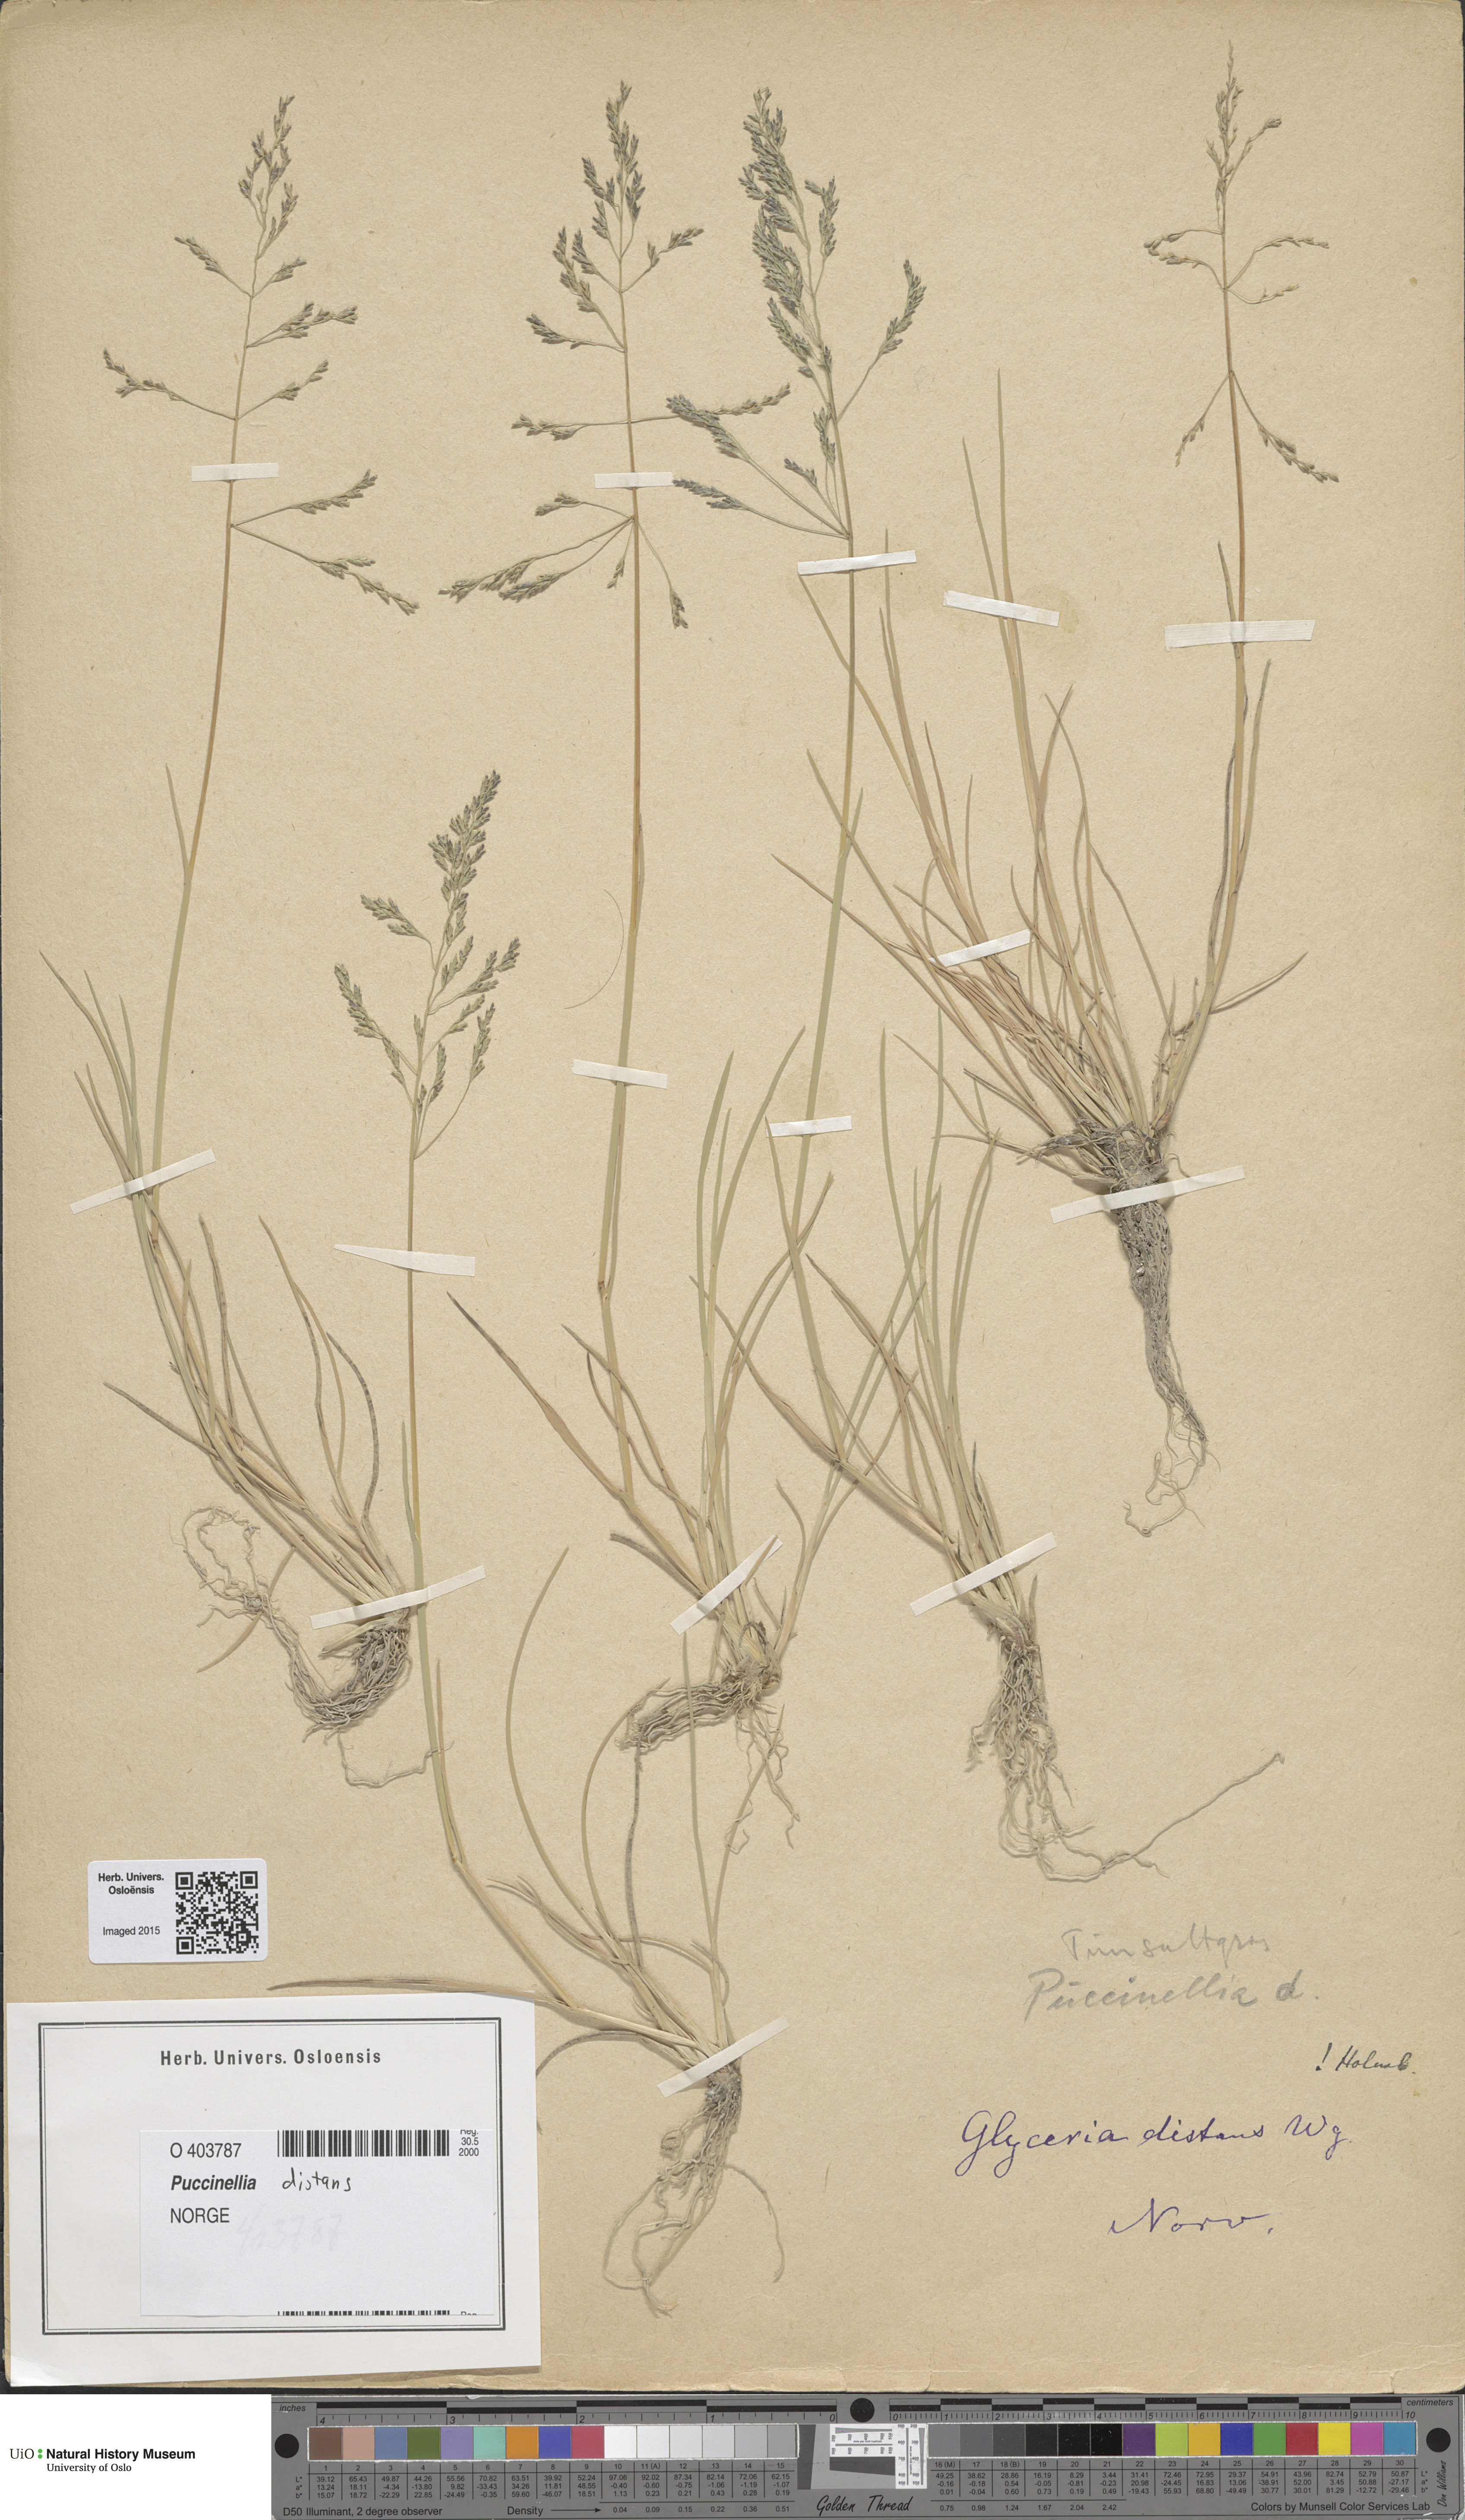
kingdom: Plantae
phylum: Tracheophyta
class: Liliopsida
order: Poales
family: Poaceae
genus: Puccinellia
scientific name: Puccinellia distans
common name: Weeping alkaligrass
